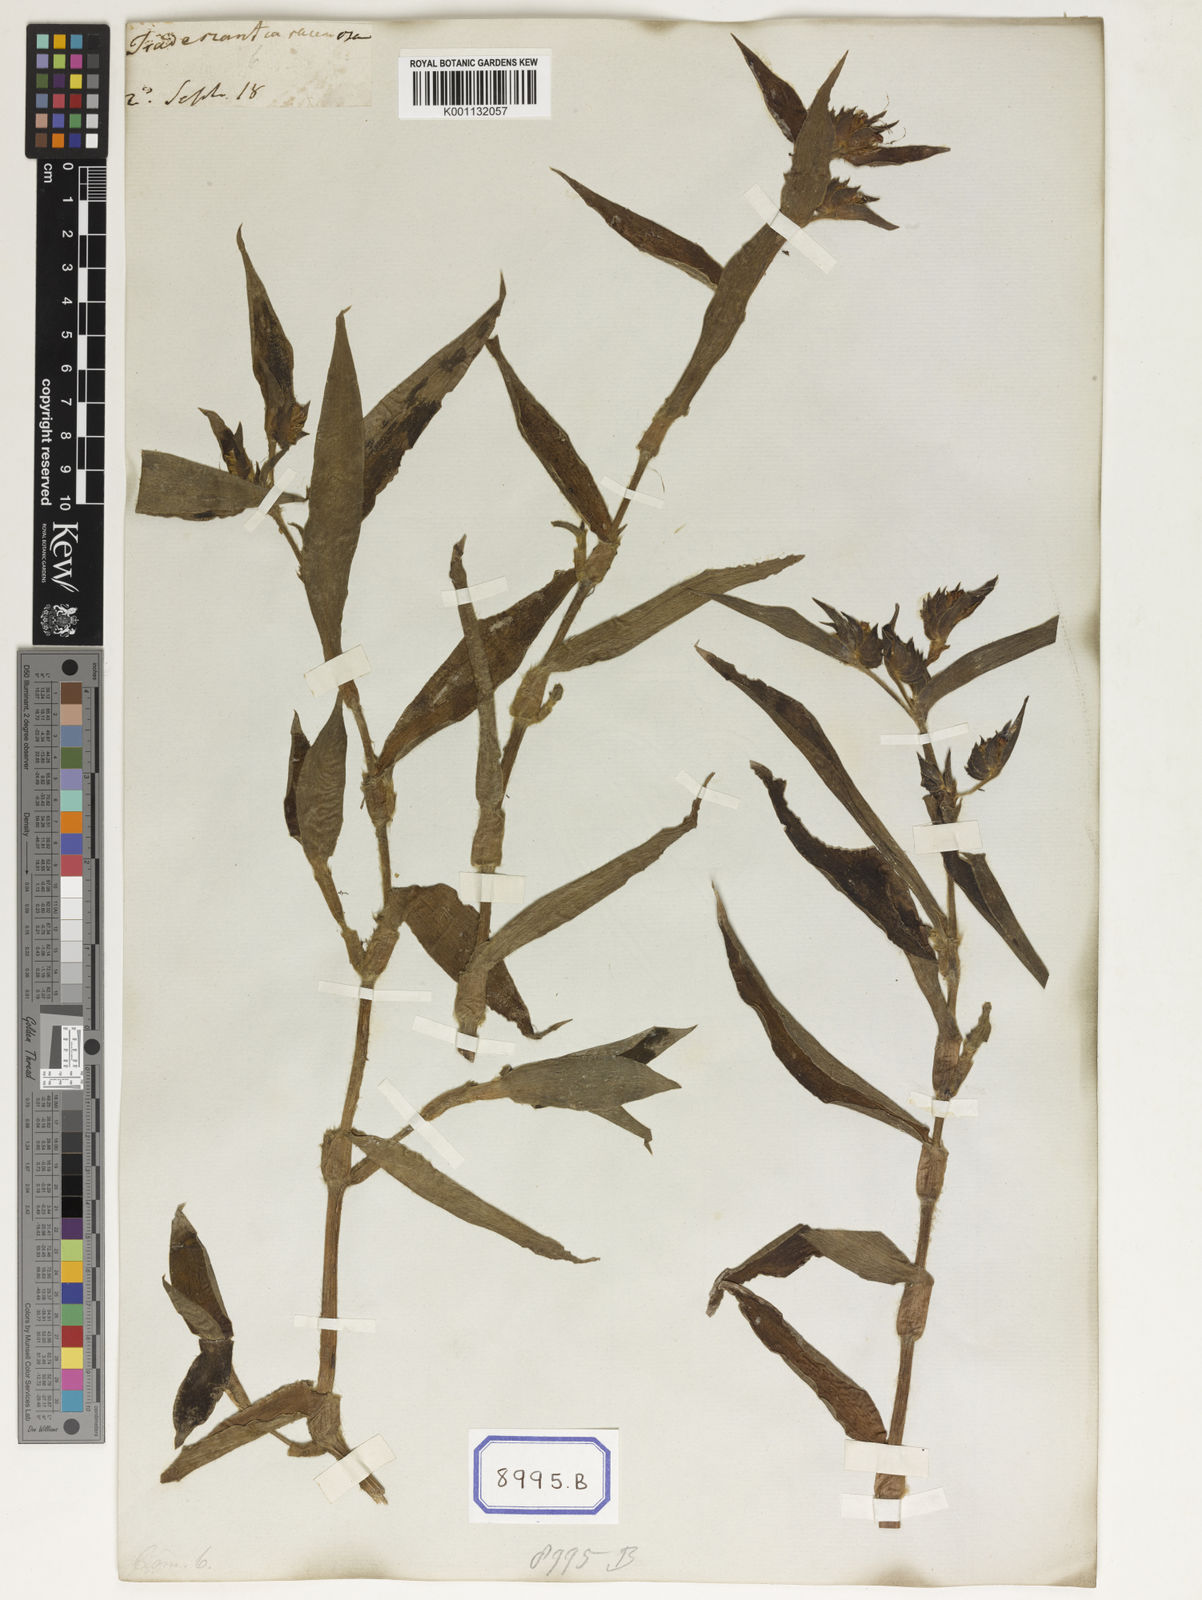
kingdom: Plantae
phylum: Tracheophyta
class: Liliopsida
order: Commelinales
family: Commelinaceae
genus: Cyanotis
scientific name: Cyanotis villosa
